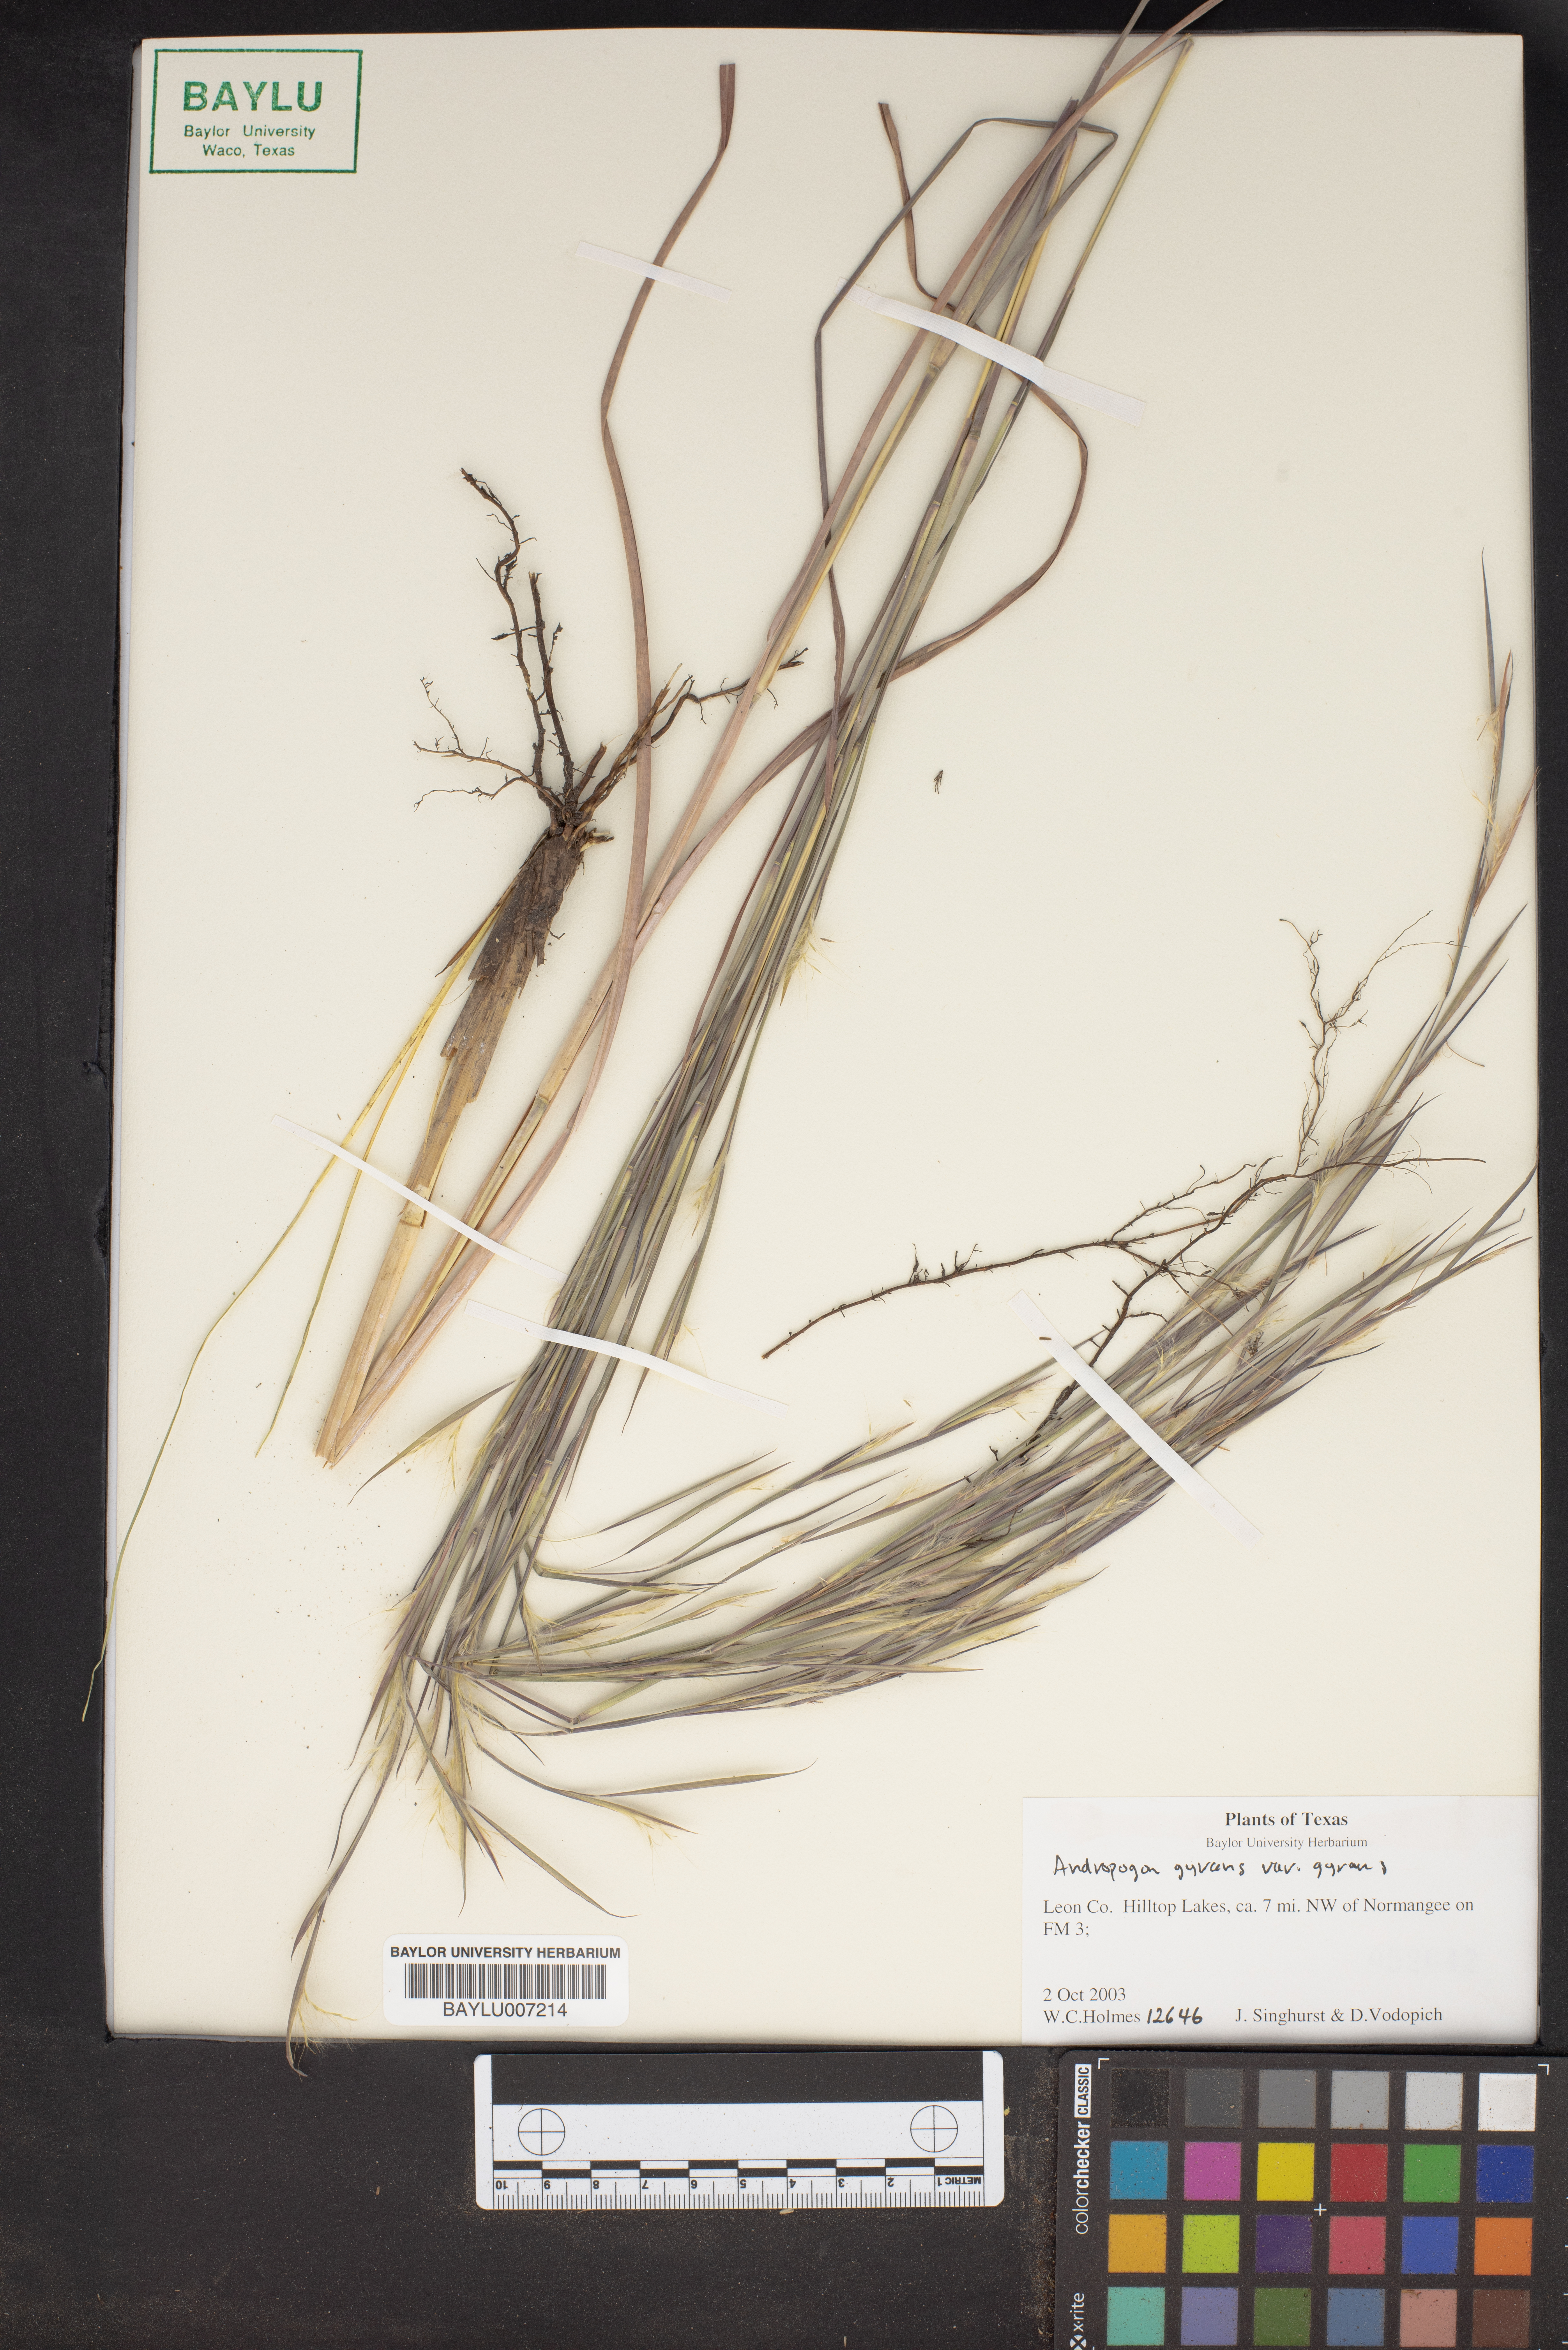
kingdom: Plantae
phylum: Tracheophyta
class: Liliopsida
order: Poales
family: Poaceae
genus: Andropogon
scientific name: Andropogon gyrans
